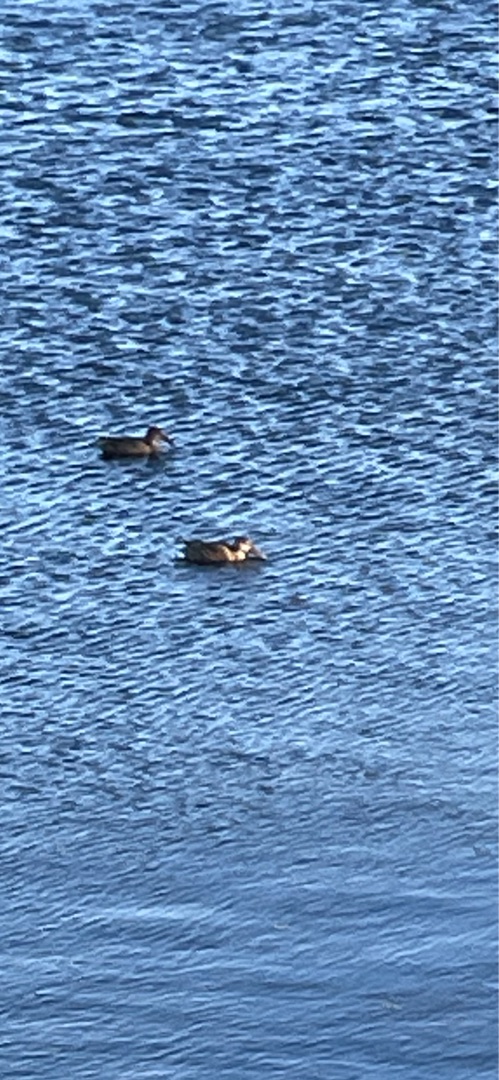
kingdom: Animalia
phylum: Chordata
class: Aves
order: Anseriformes
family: Anatidae
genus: Spatula
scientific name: Spatula clypeata
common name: Skeand
